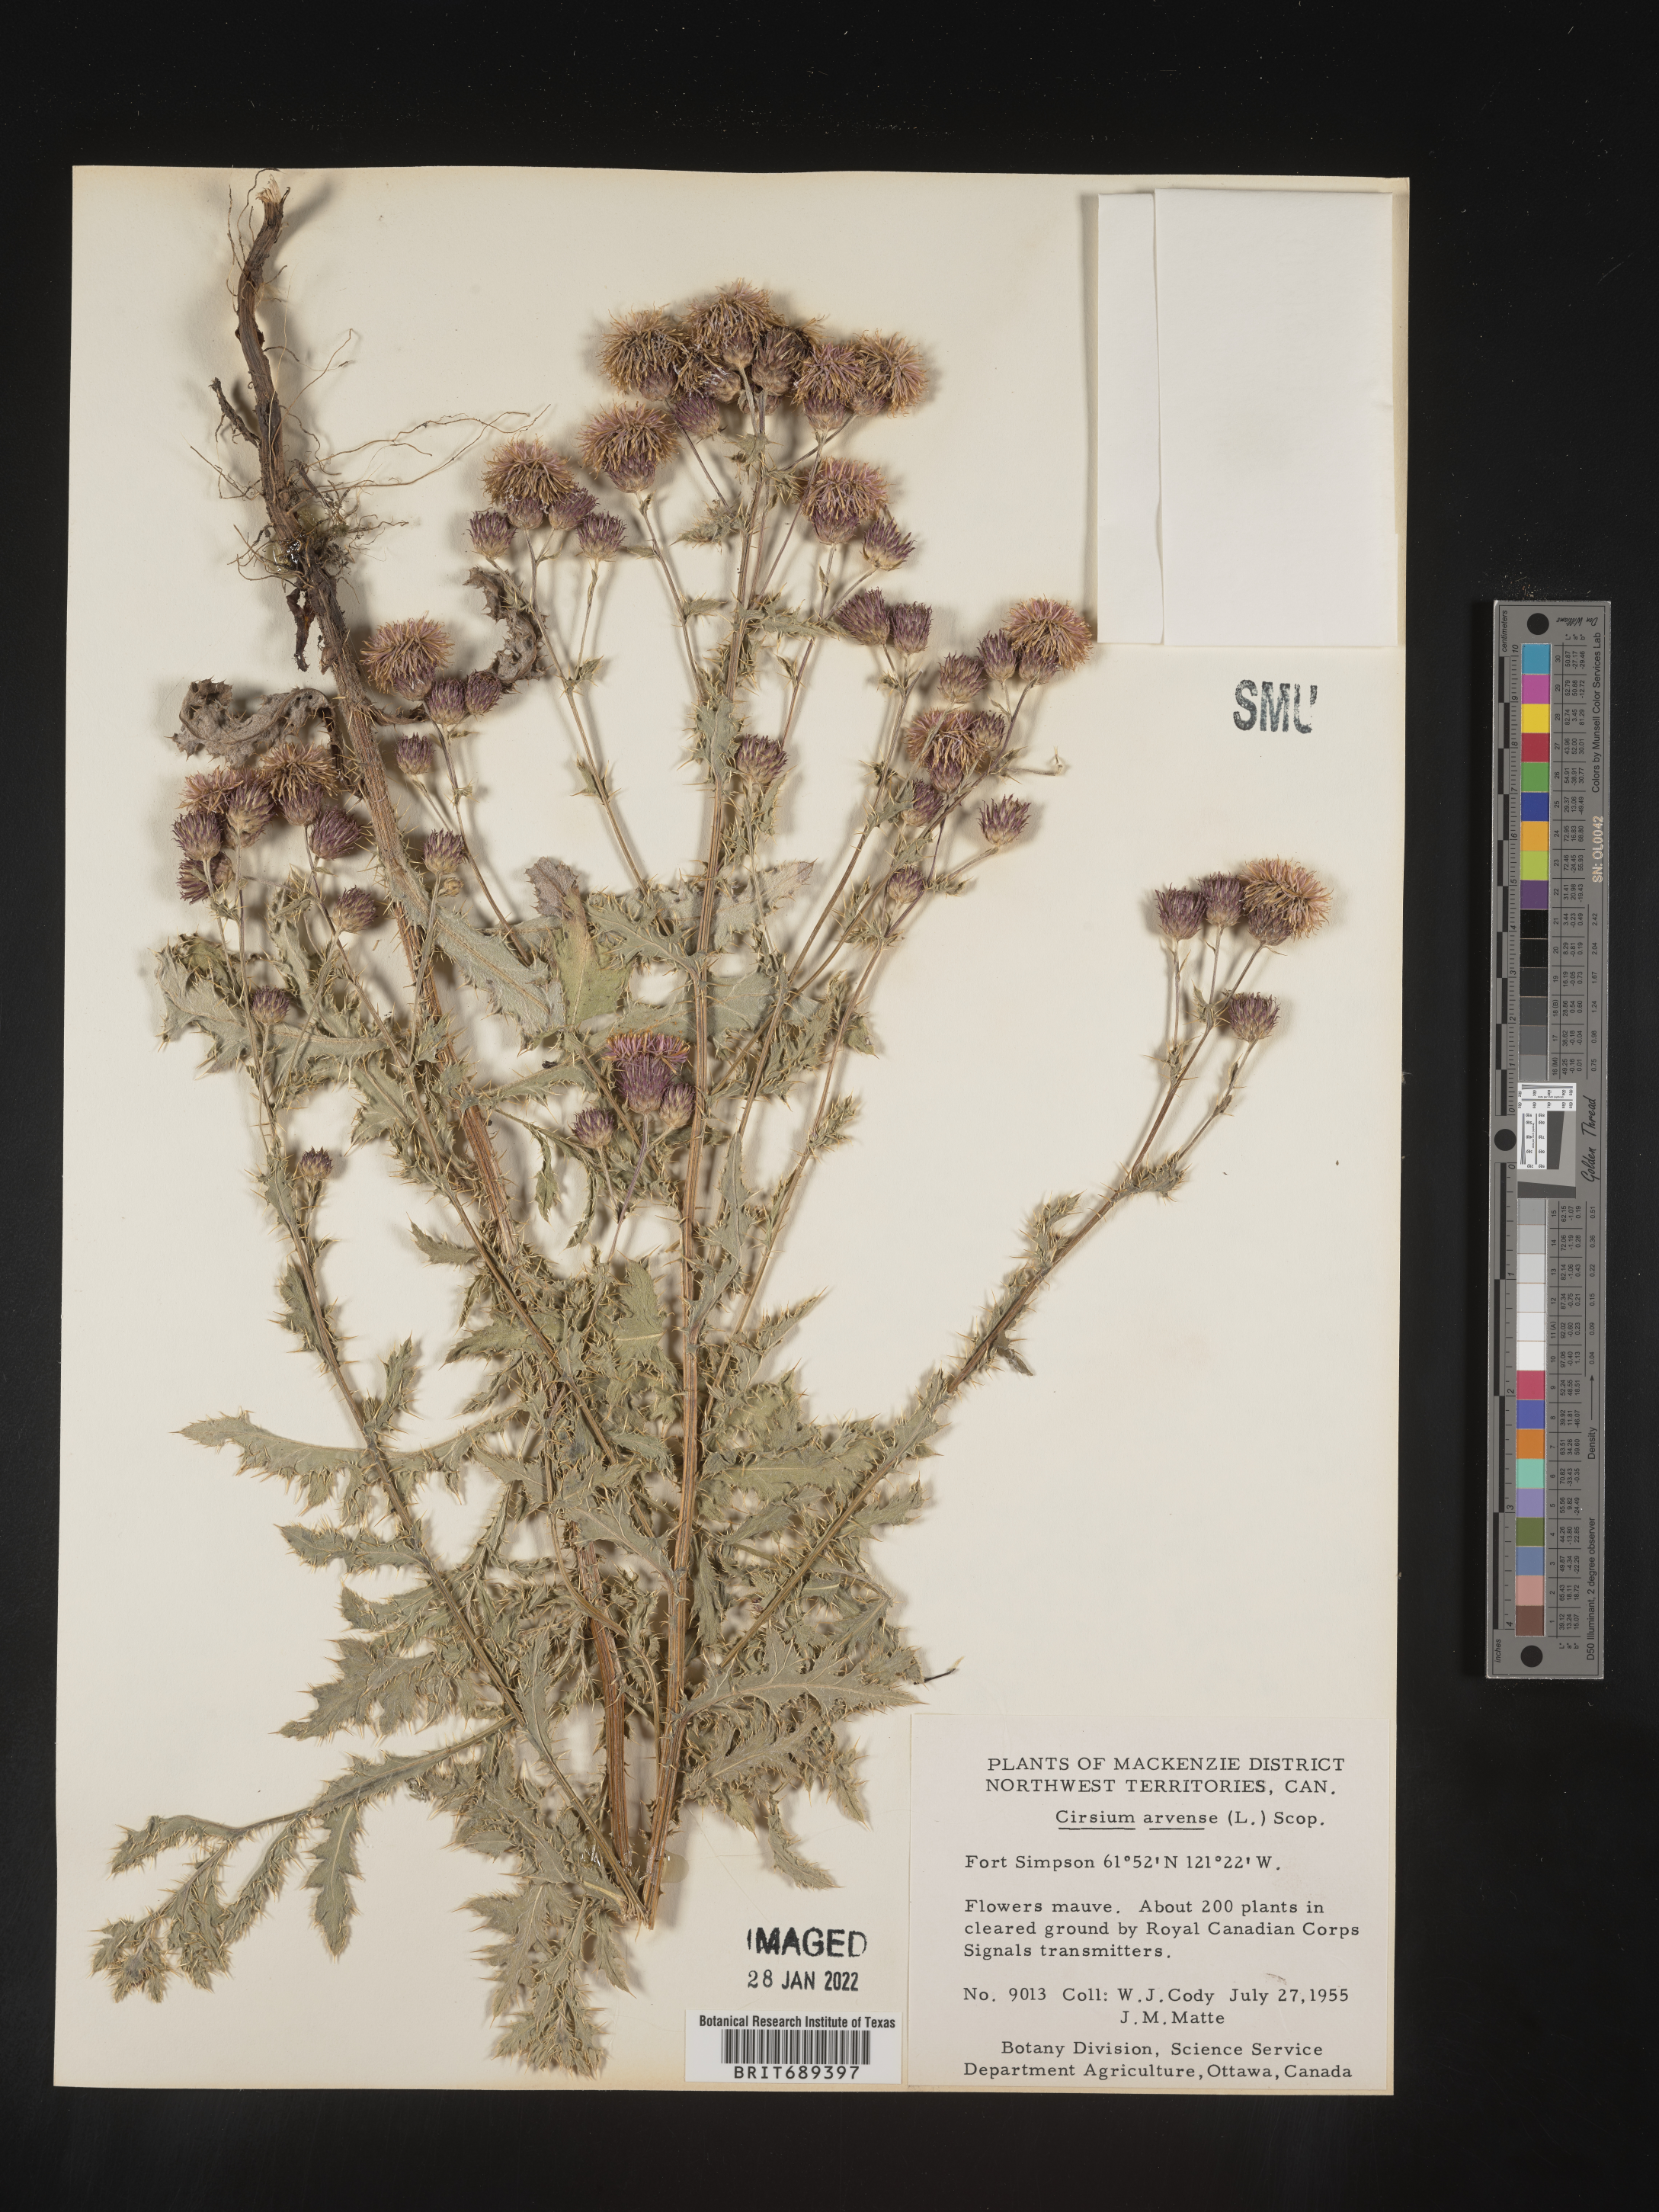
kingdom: Plantae
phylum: Tracheophyta
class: Magnoliopsida
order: Asterales
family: Asteraceae
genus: Cirsium
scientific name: Cirsium arvense
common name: Creeping thistle
